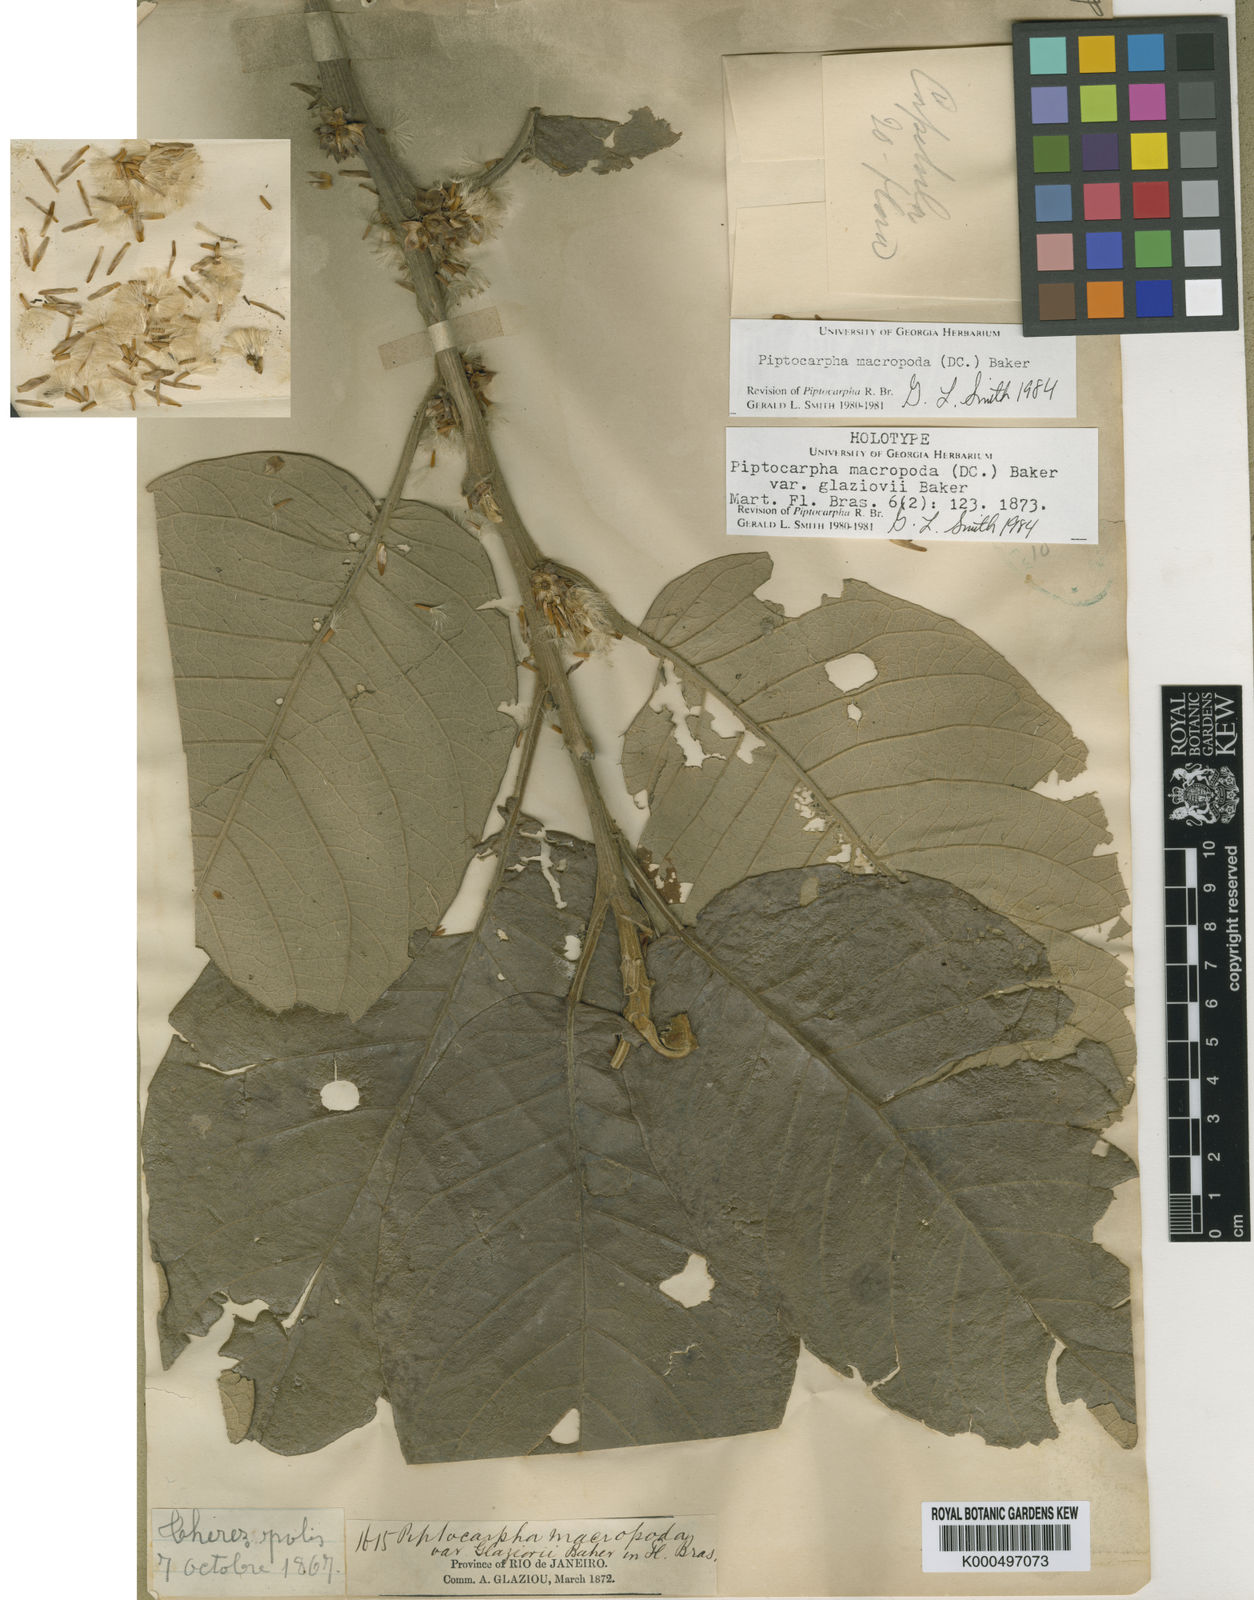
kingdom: Plantae
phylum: Tracheophyta
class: Magnoliopsida
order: Asterales
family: Asteraceae
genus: Piptocarpha
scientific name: Piptocarpha macropoda
